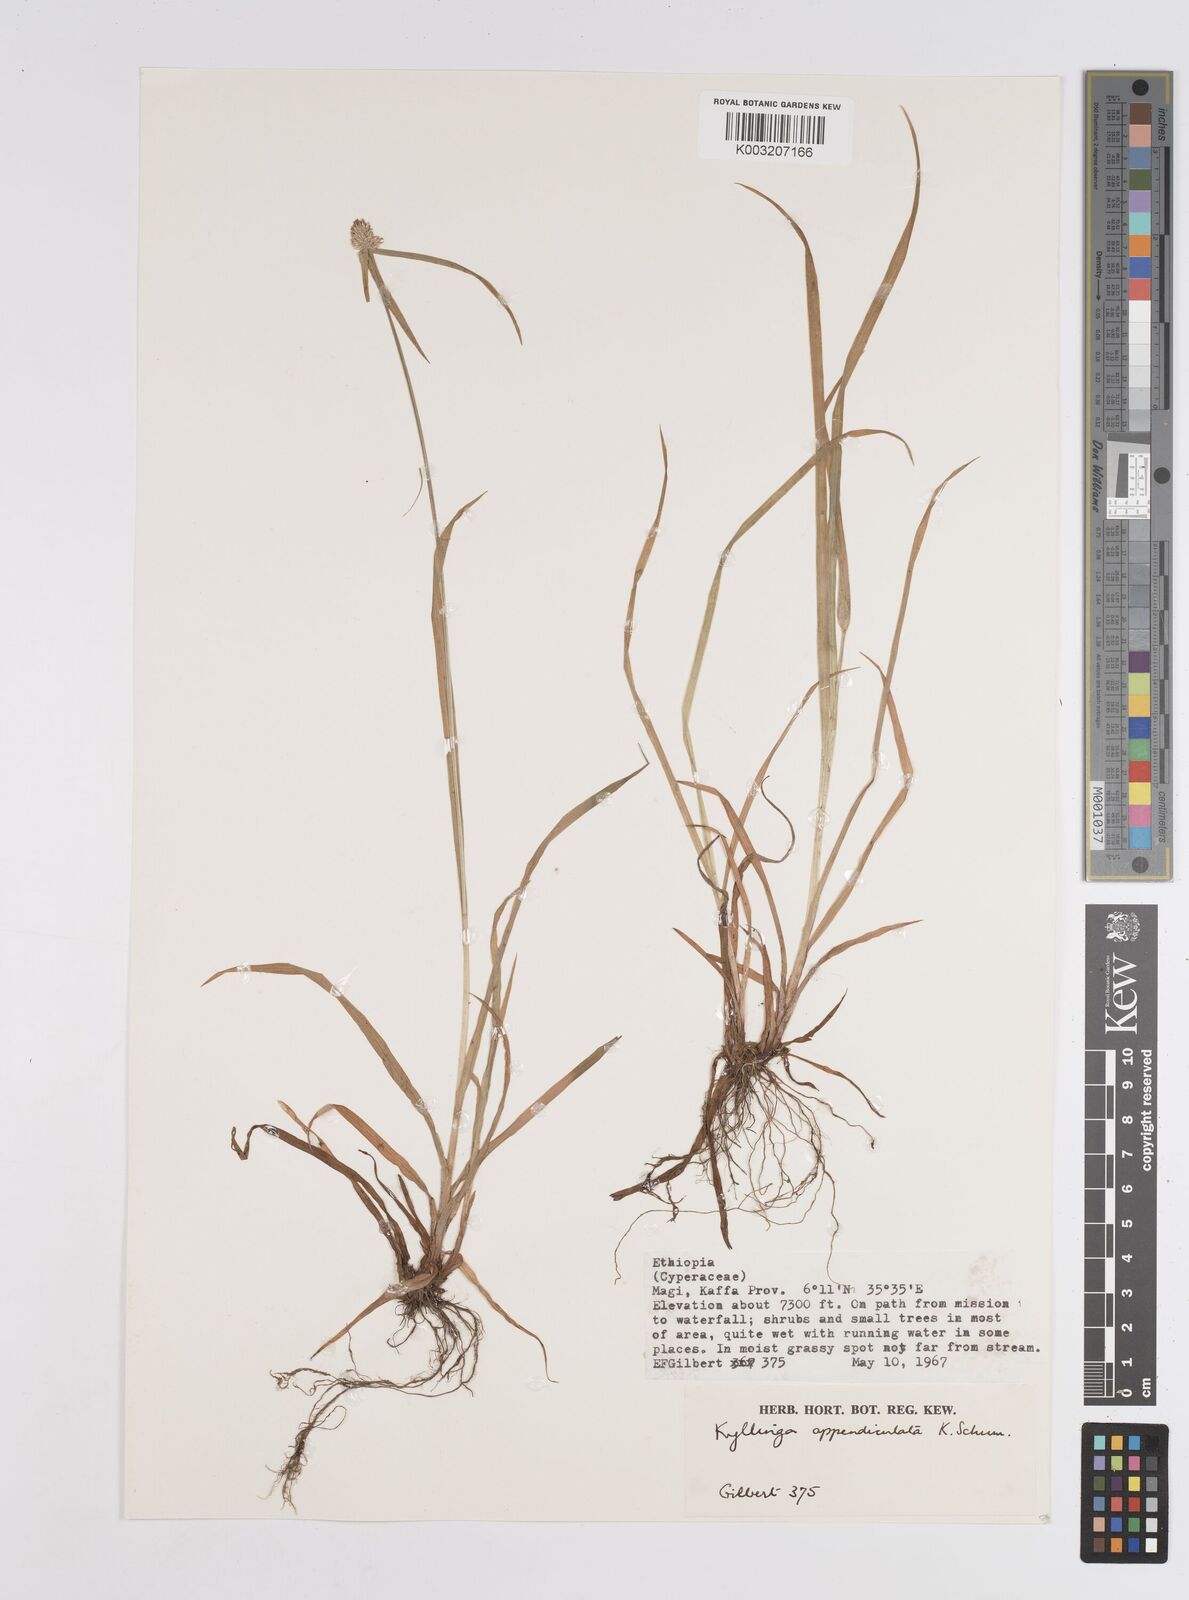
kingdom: Plantae
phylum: Tracheophyta
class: Liliopsida
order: Poales
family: Cyperaceae
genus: Cyperus
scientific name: Cyperus
